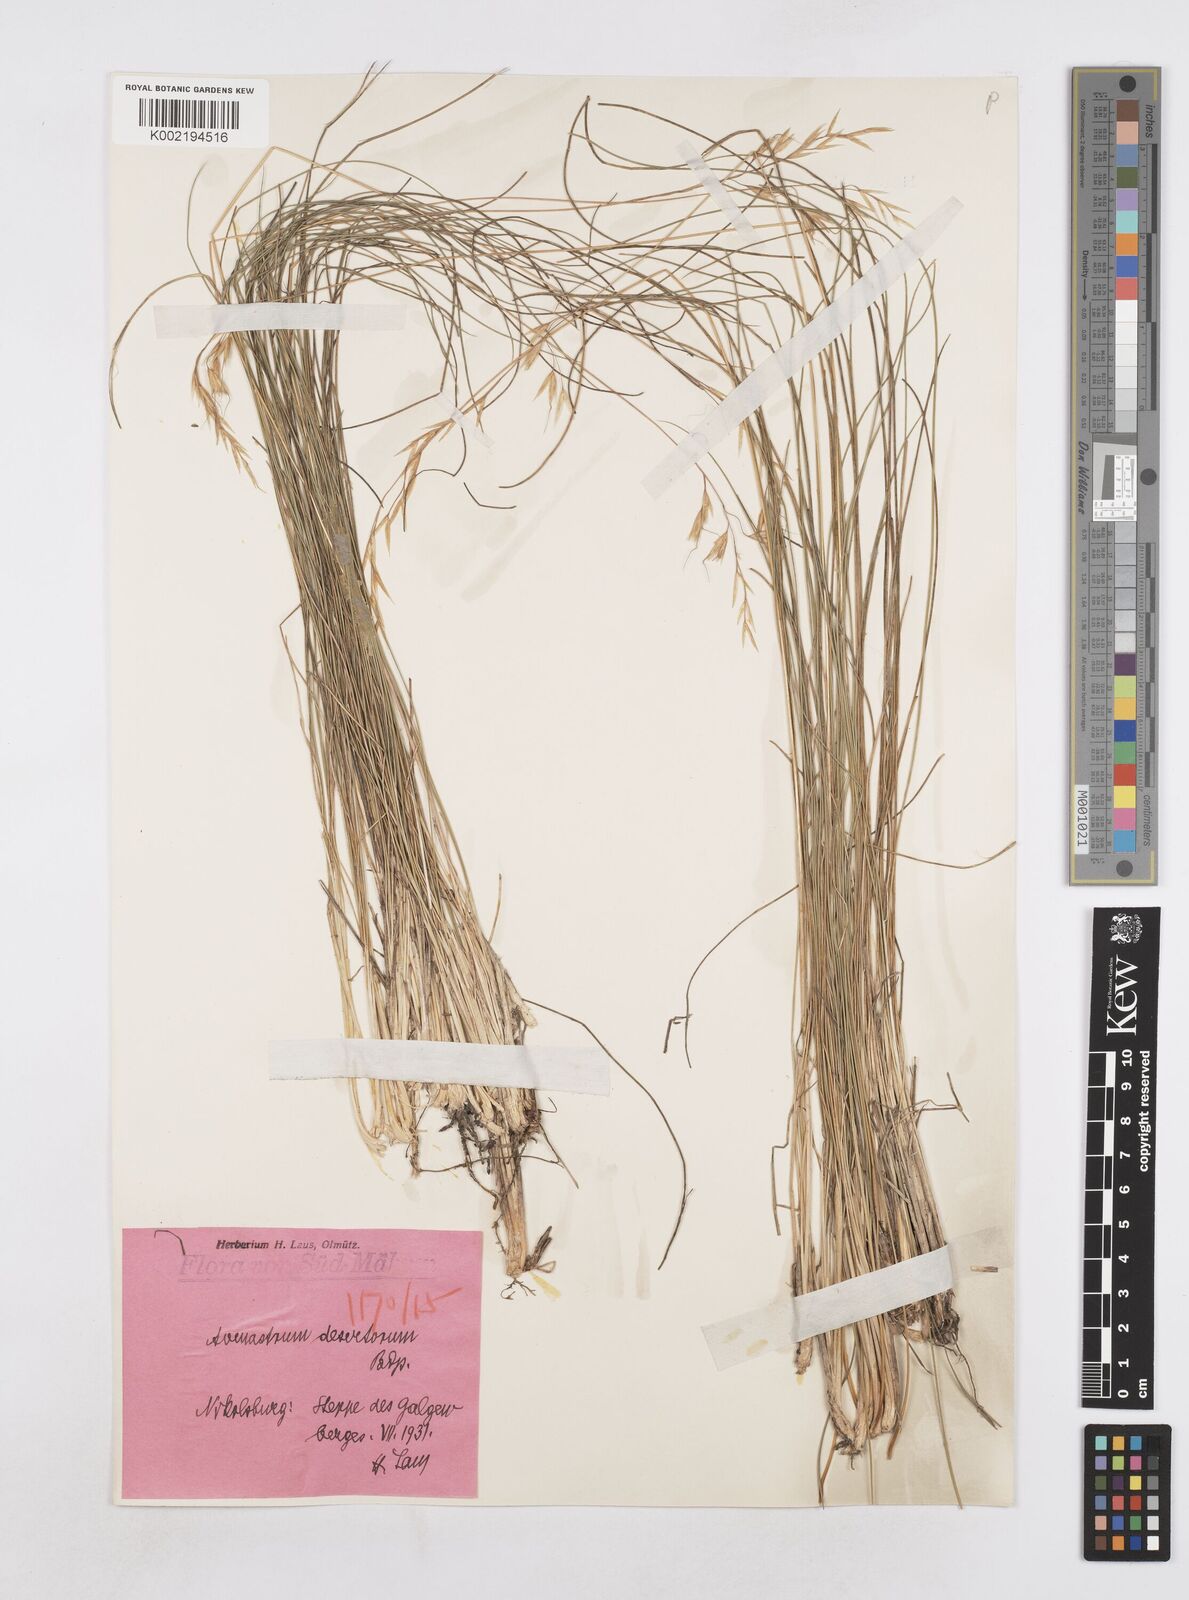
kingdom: Plantae
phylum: Tracheophyta
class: Liliopsida
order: Poales
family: Poaceae
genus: Helictotrichon
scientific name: Helictotrichon desertorum
